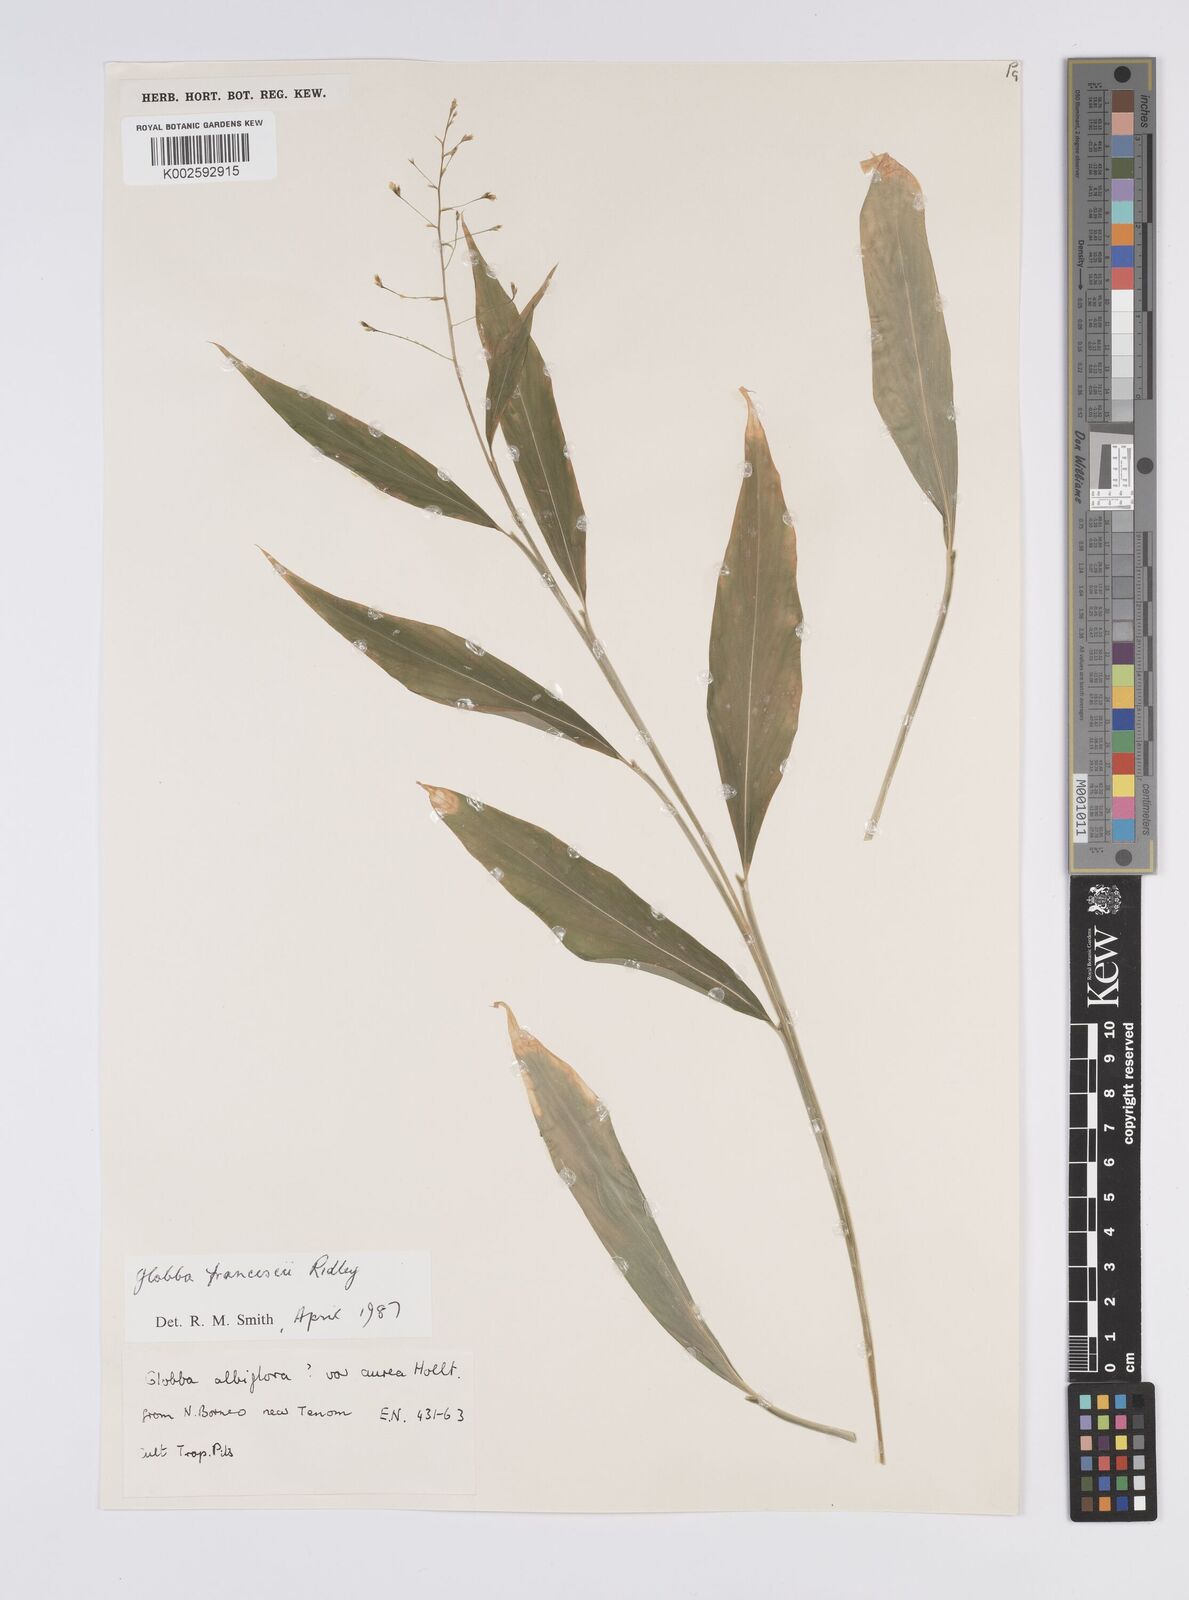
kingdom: Plantae
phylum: Tracheophyta
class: Liliopsida
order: Zingiberales
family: Zingiberaceae
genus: Globba
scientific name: Globba francisci
